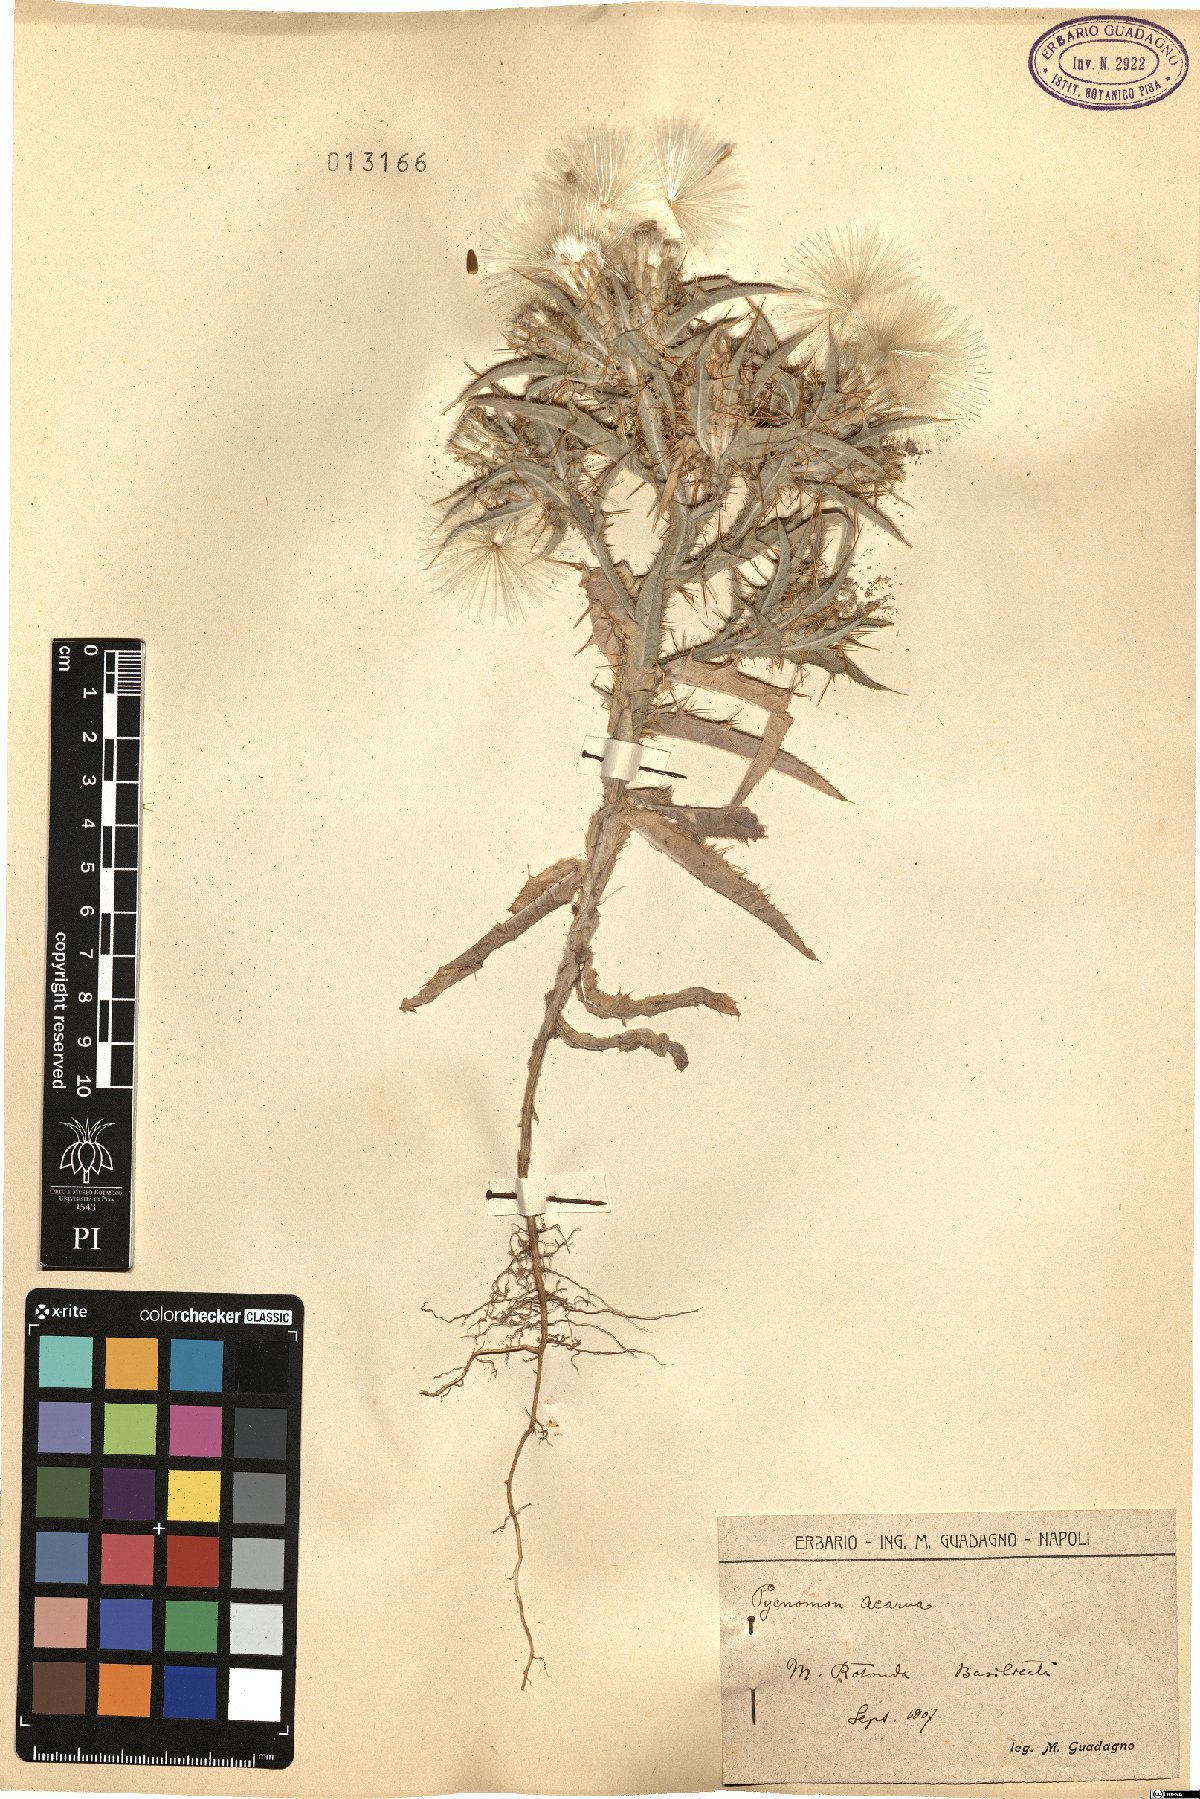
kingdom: Plantae
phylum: Tracheophyta
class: Magnoliopsida
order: Asterales
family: Asteraceae
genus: Picnomon
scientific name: Picnomon acarna
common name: Soldier thistle
